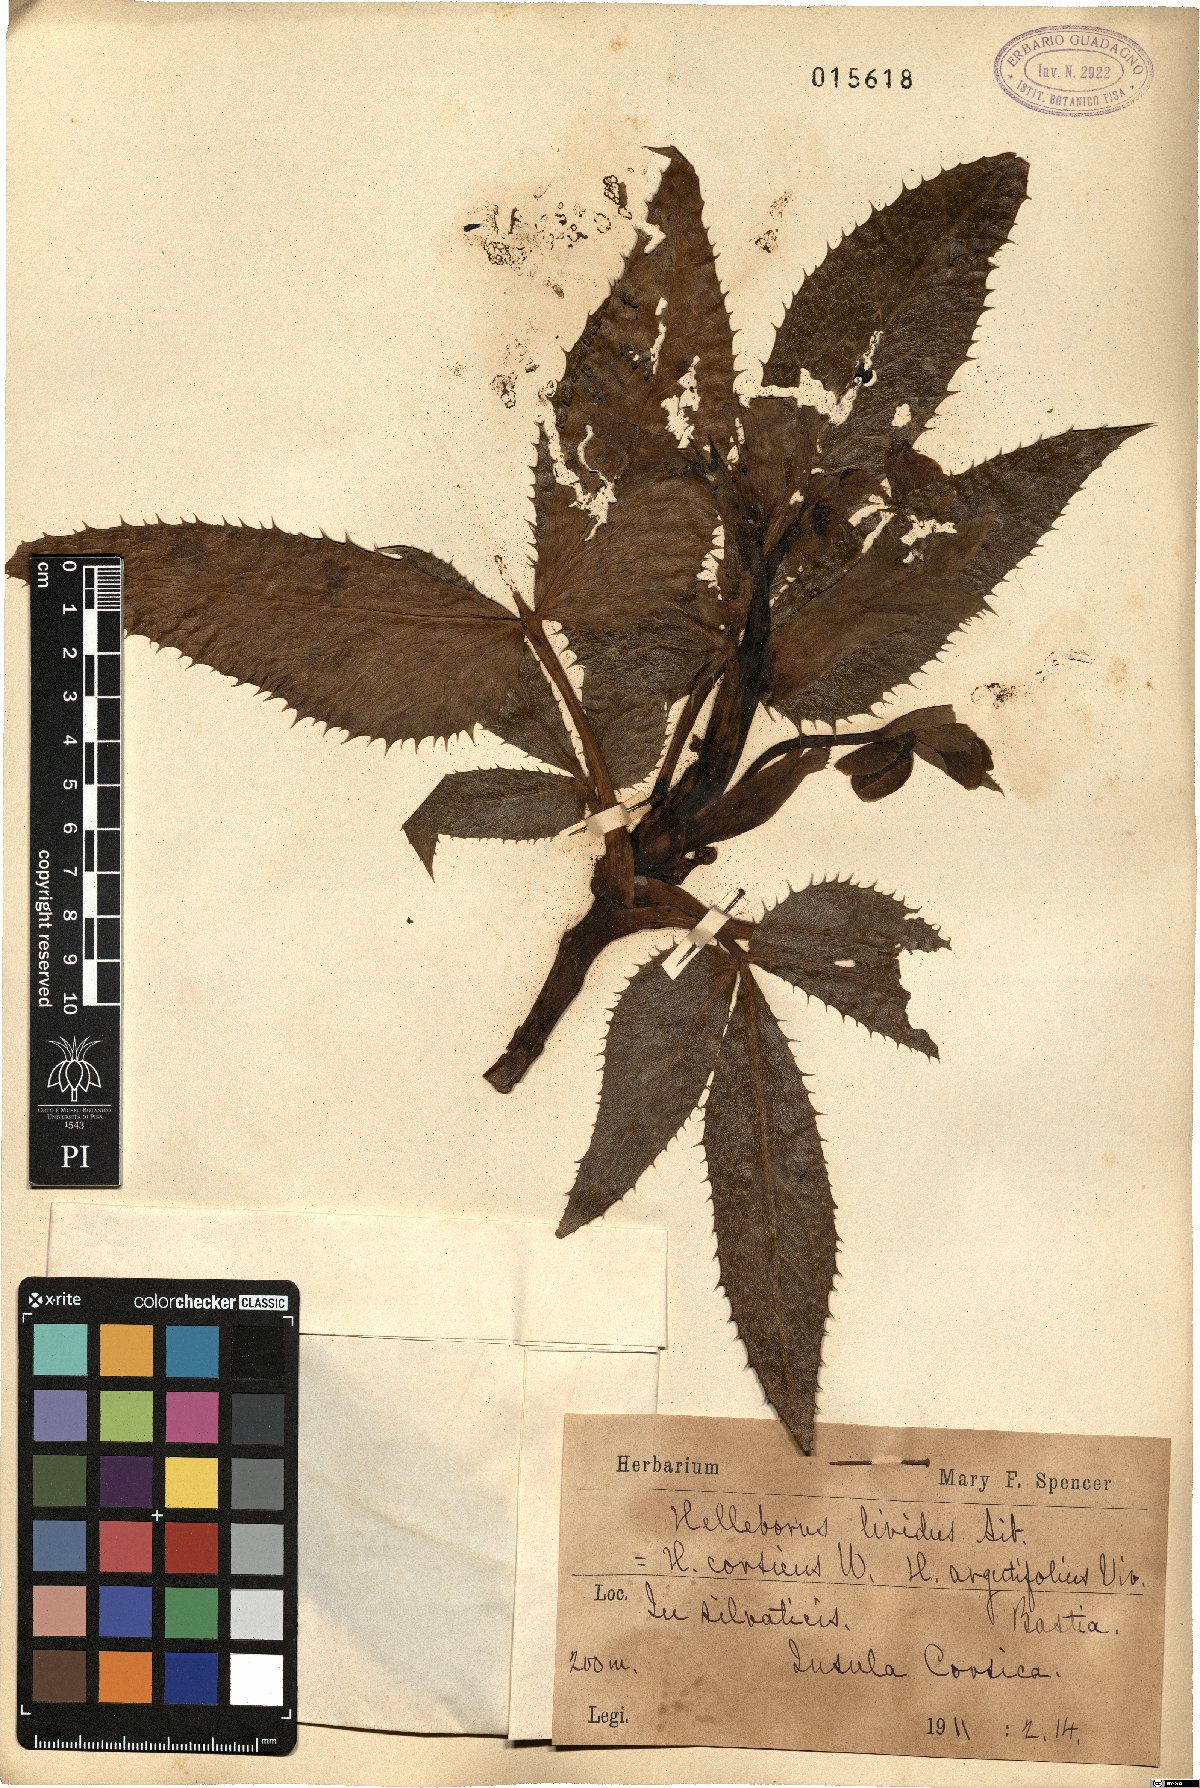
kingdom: Plantae
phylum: Tracheophyta
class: Magnoliopsida
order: Ranunculales
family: Ranunculaceae
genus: Helleborus
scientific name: Helleborus lividus
